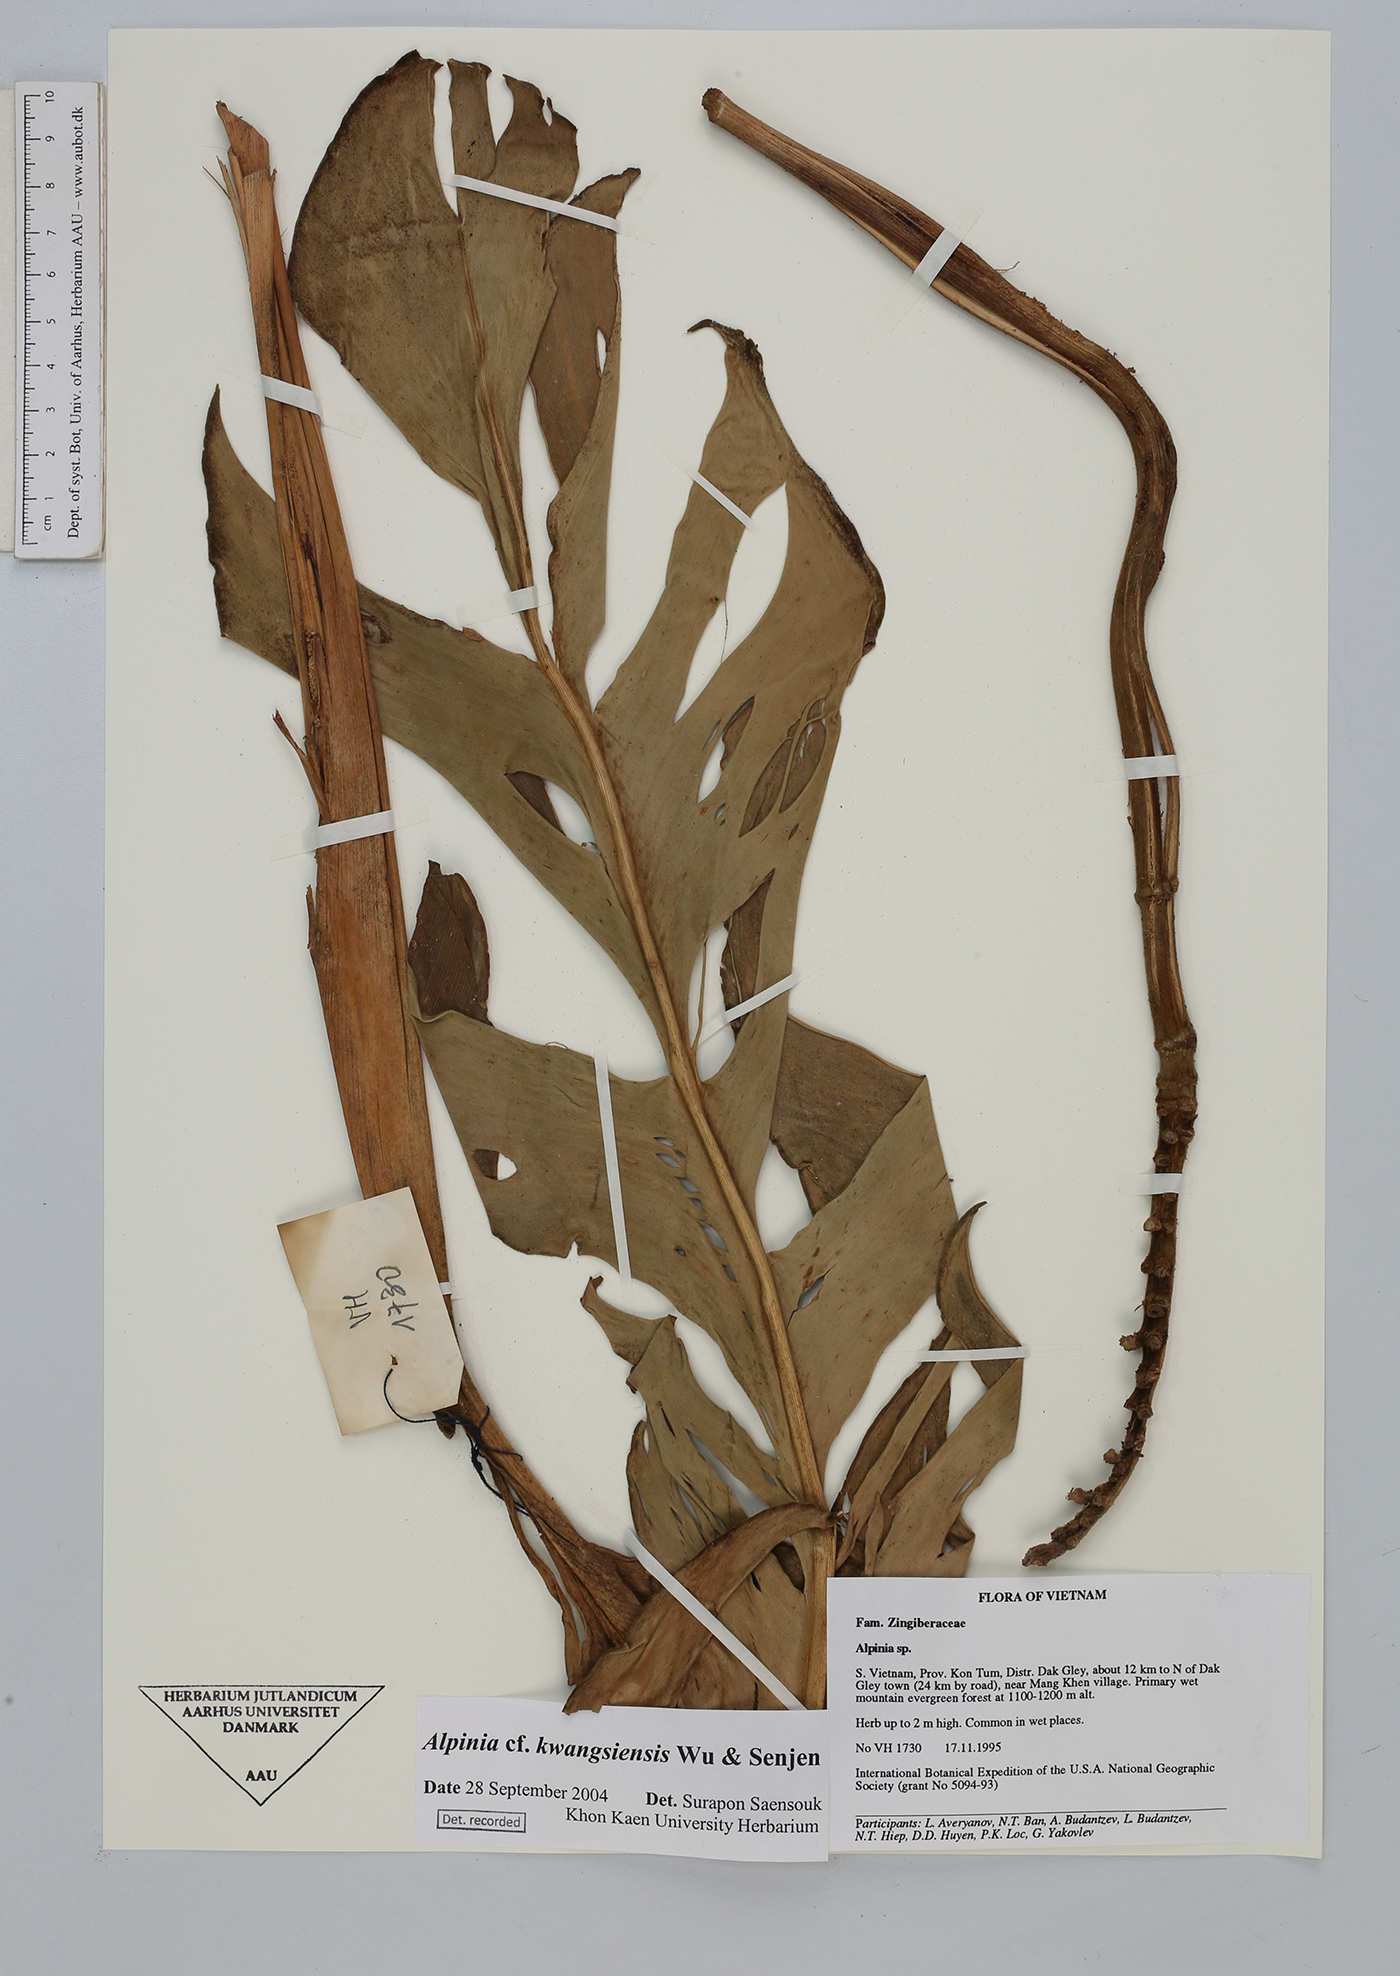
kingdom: Plantae
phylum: Tracheophyta
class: Liliopsida
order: Zingiberales
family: Zingiberaceae
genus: Alpinia
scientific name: Alpinia kwangsiensis
